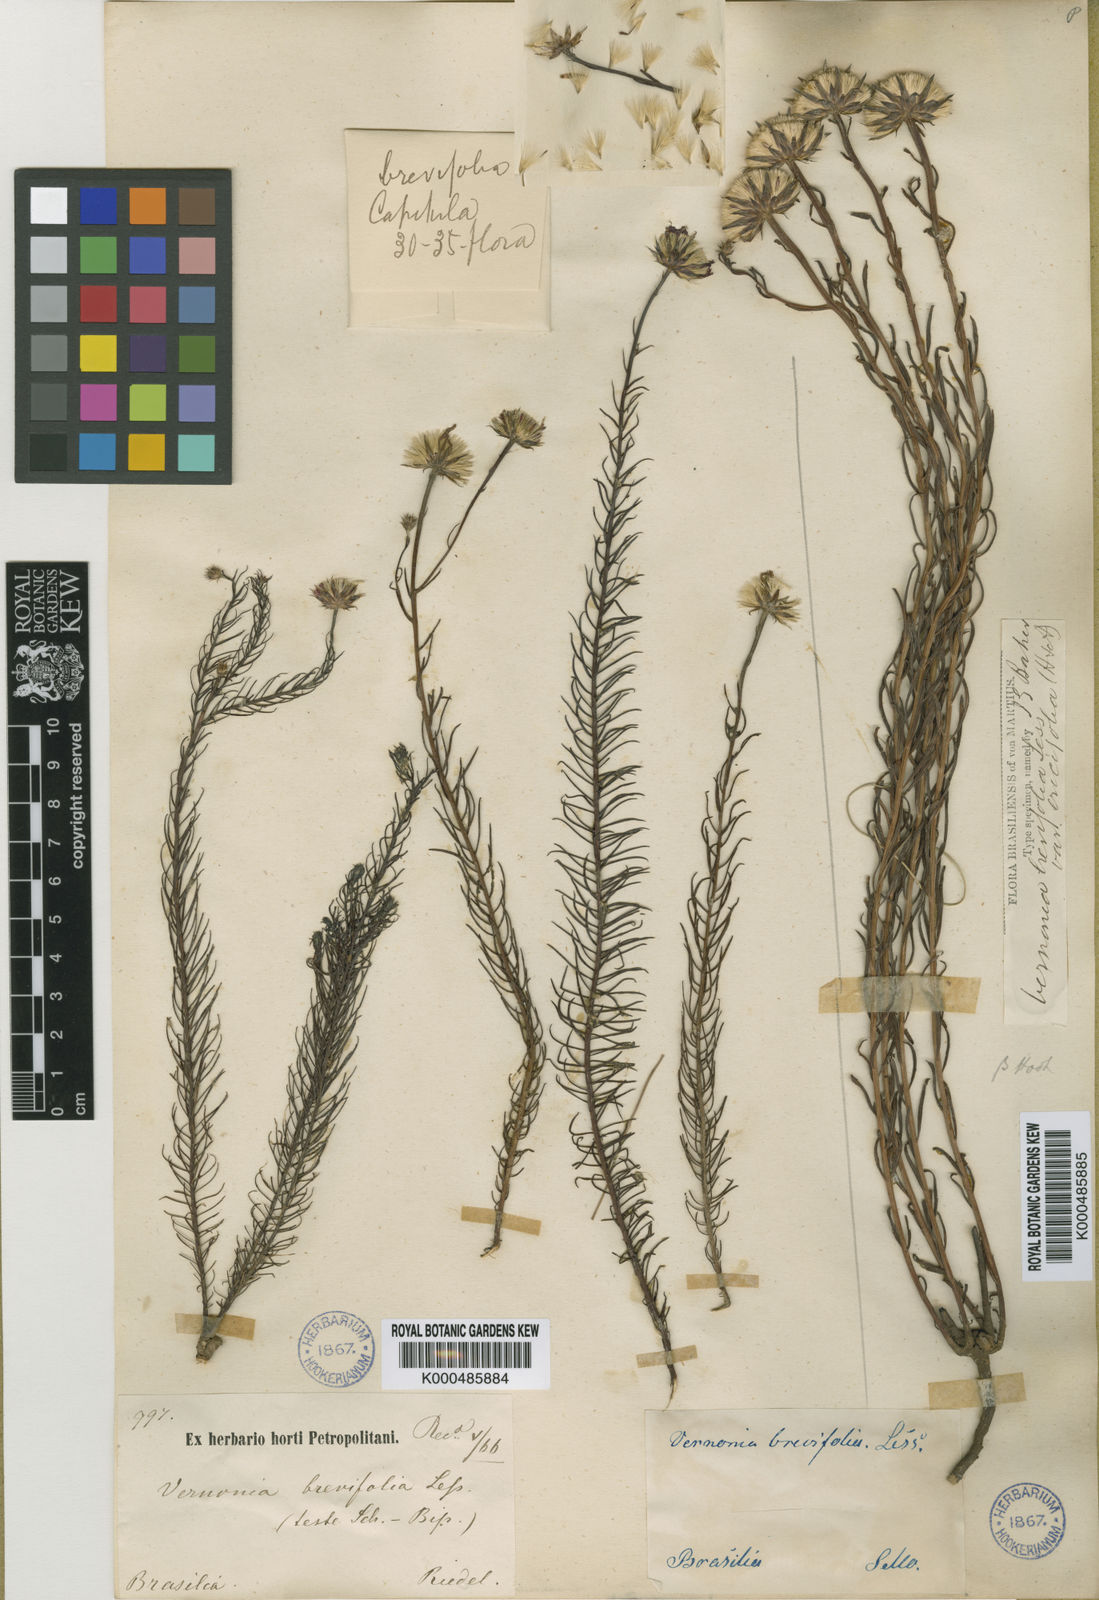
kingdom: Plantae
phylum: Tracheophyta
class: Magnoliopsida
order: Asterales
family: Asteraceae
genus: Lessingianthus
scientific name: Lessingianthus brevifolius
